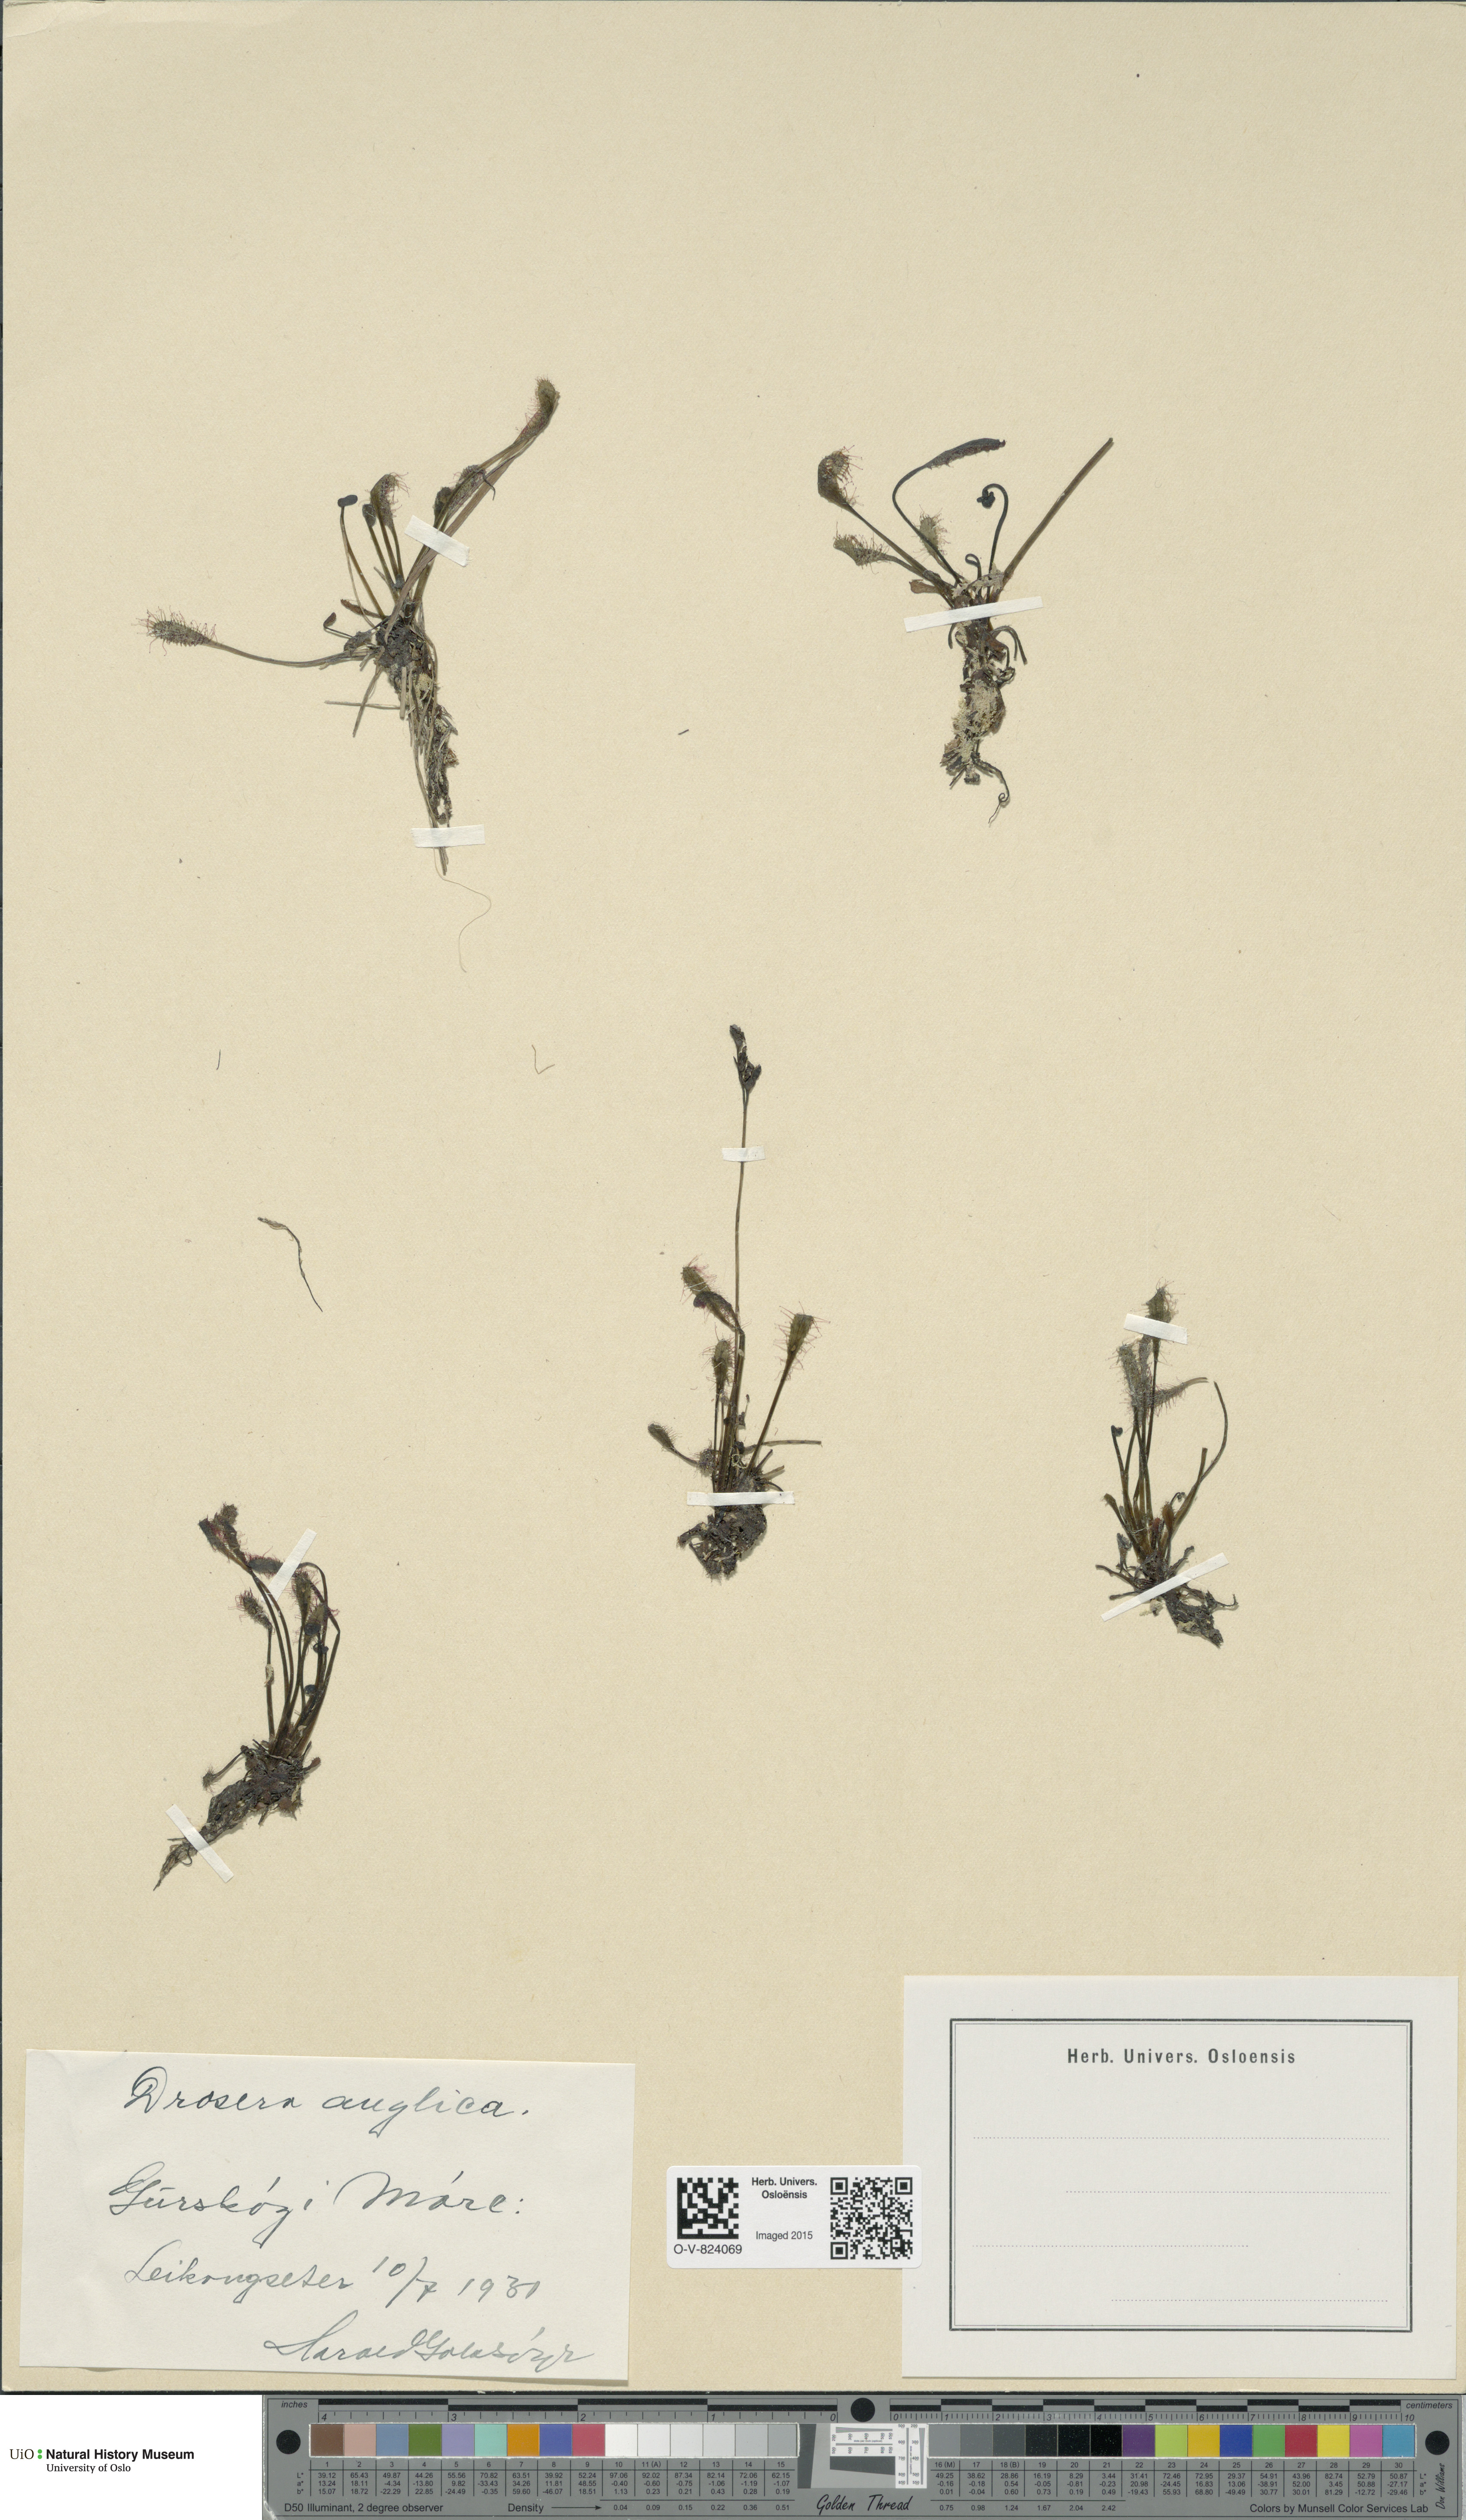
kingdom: Plantae
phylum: Tracheophyta
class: Magnoliopsida
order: Caryophyllales
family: Droseraceae
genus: Drosera
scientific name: Drosera anglica
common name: Great sundew
